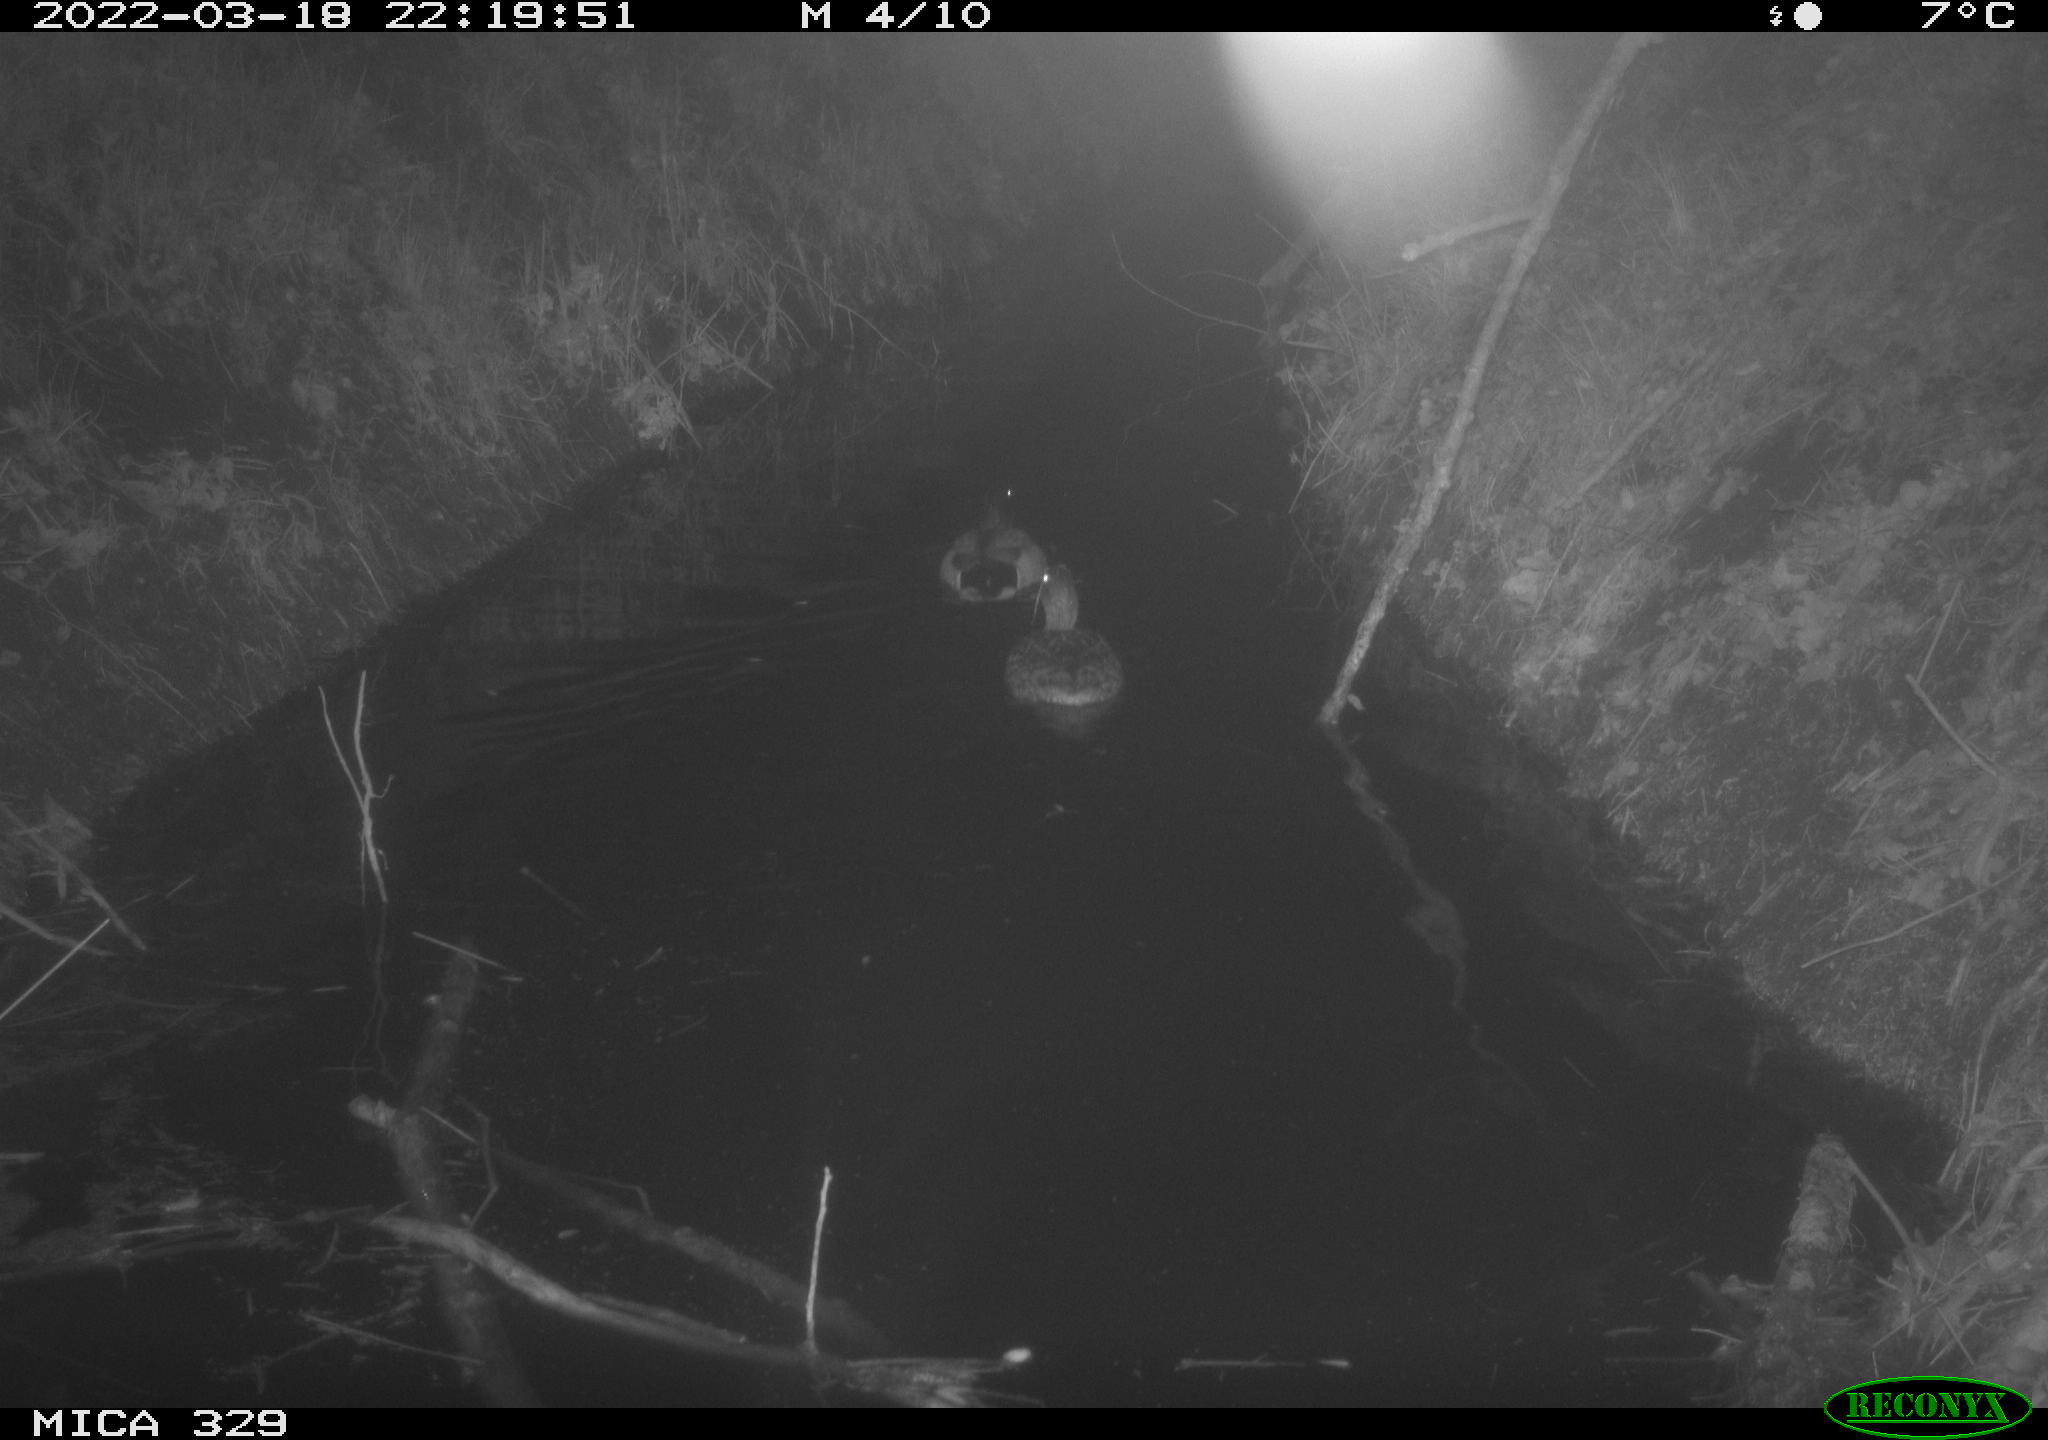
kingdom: Animalia
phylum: Chordata
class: Aves
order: Anseriformes
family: Anatidae
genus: Anas
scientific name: Anas platyrhynchos
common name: Mallard
